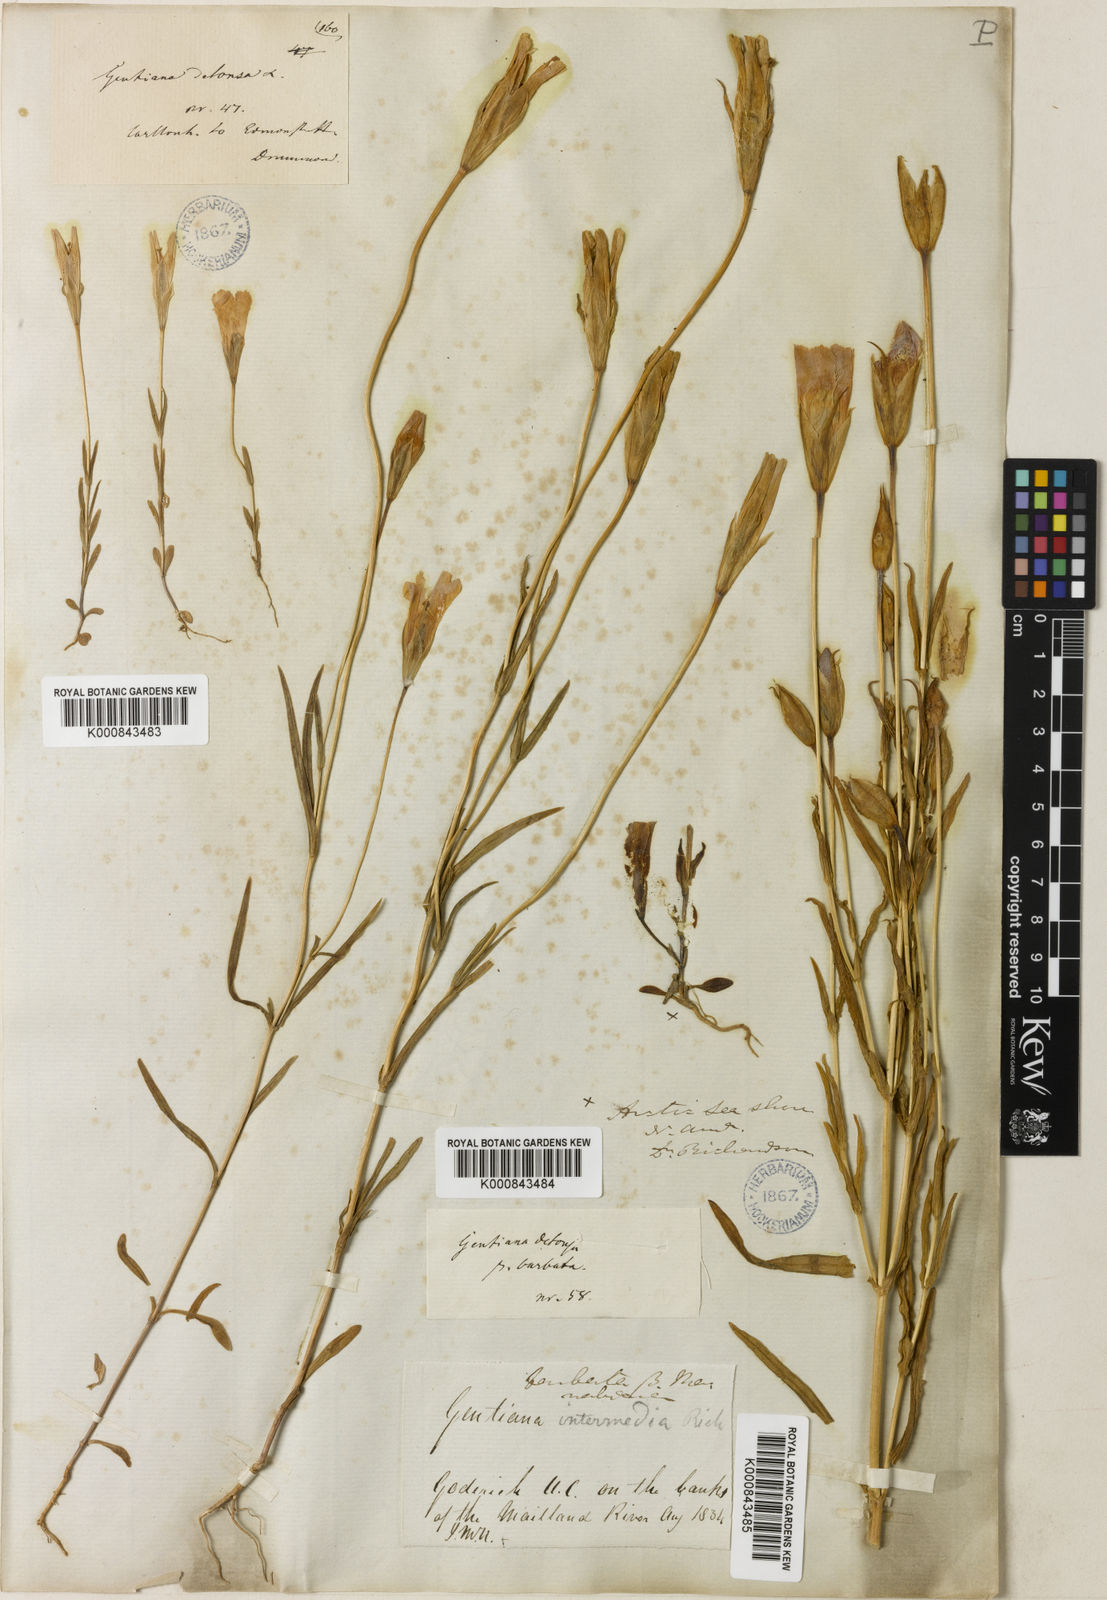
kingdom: Plantae
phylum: Tracheophyta
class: Magnoliopsida
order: Gentianales
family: Gentianaceae
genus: Gentianopsis
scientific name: Gentianopsis crinita
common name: Fringed-gentian
